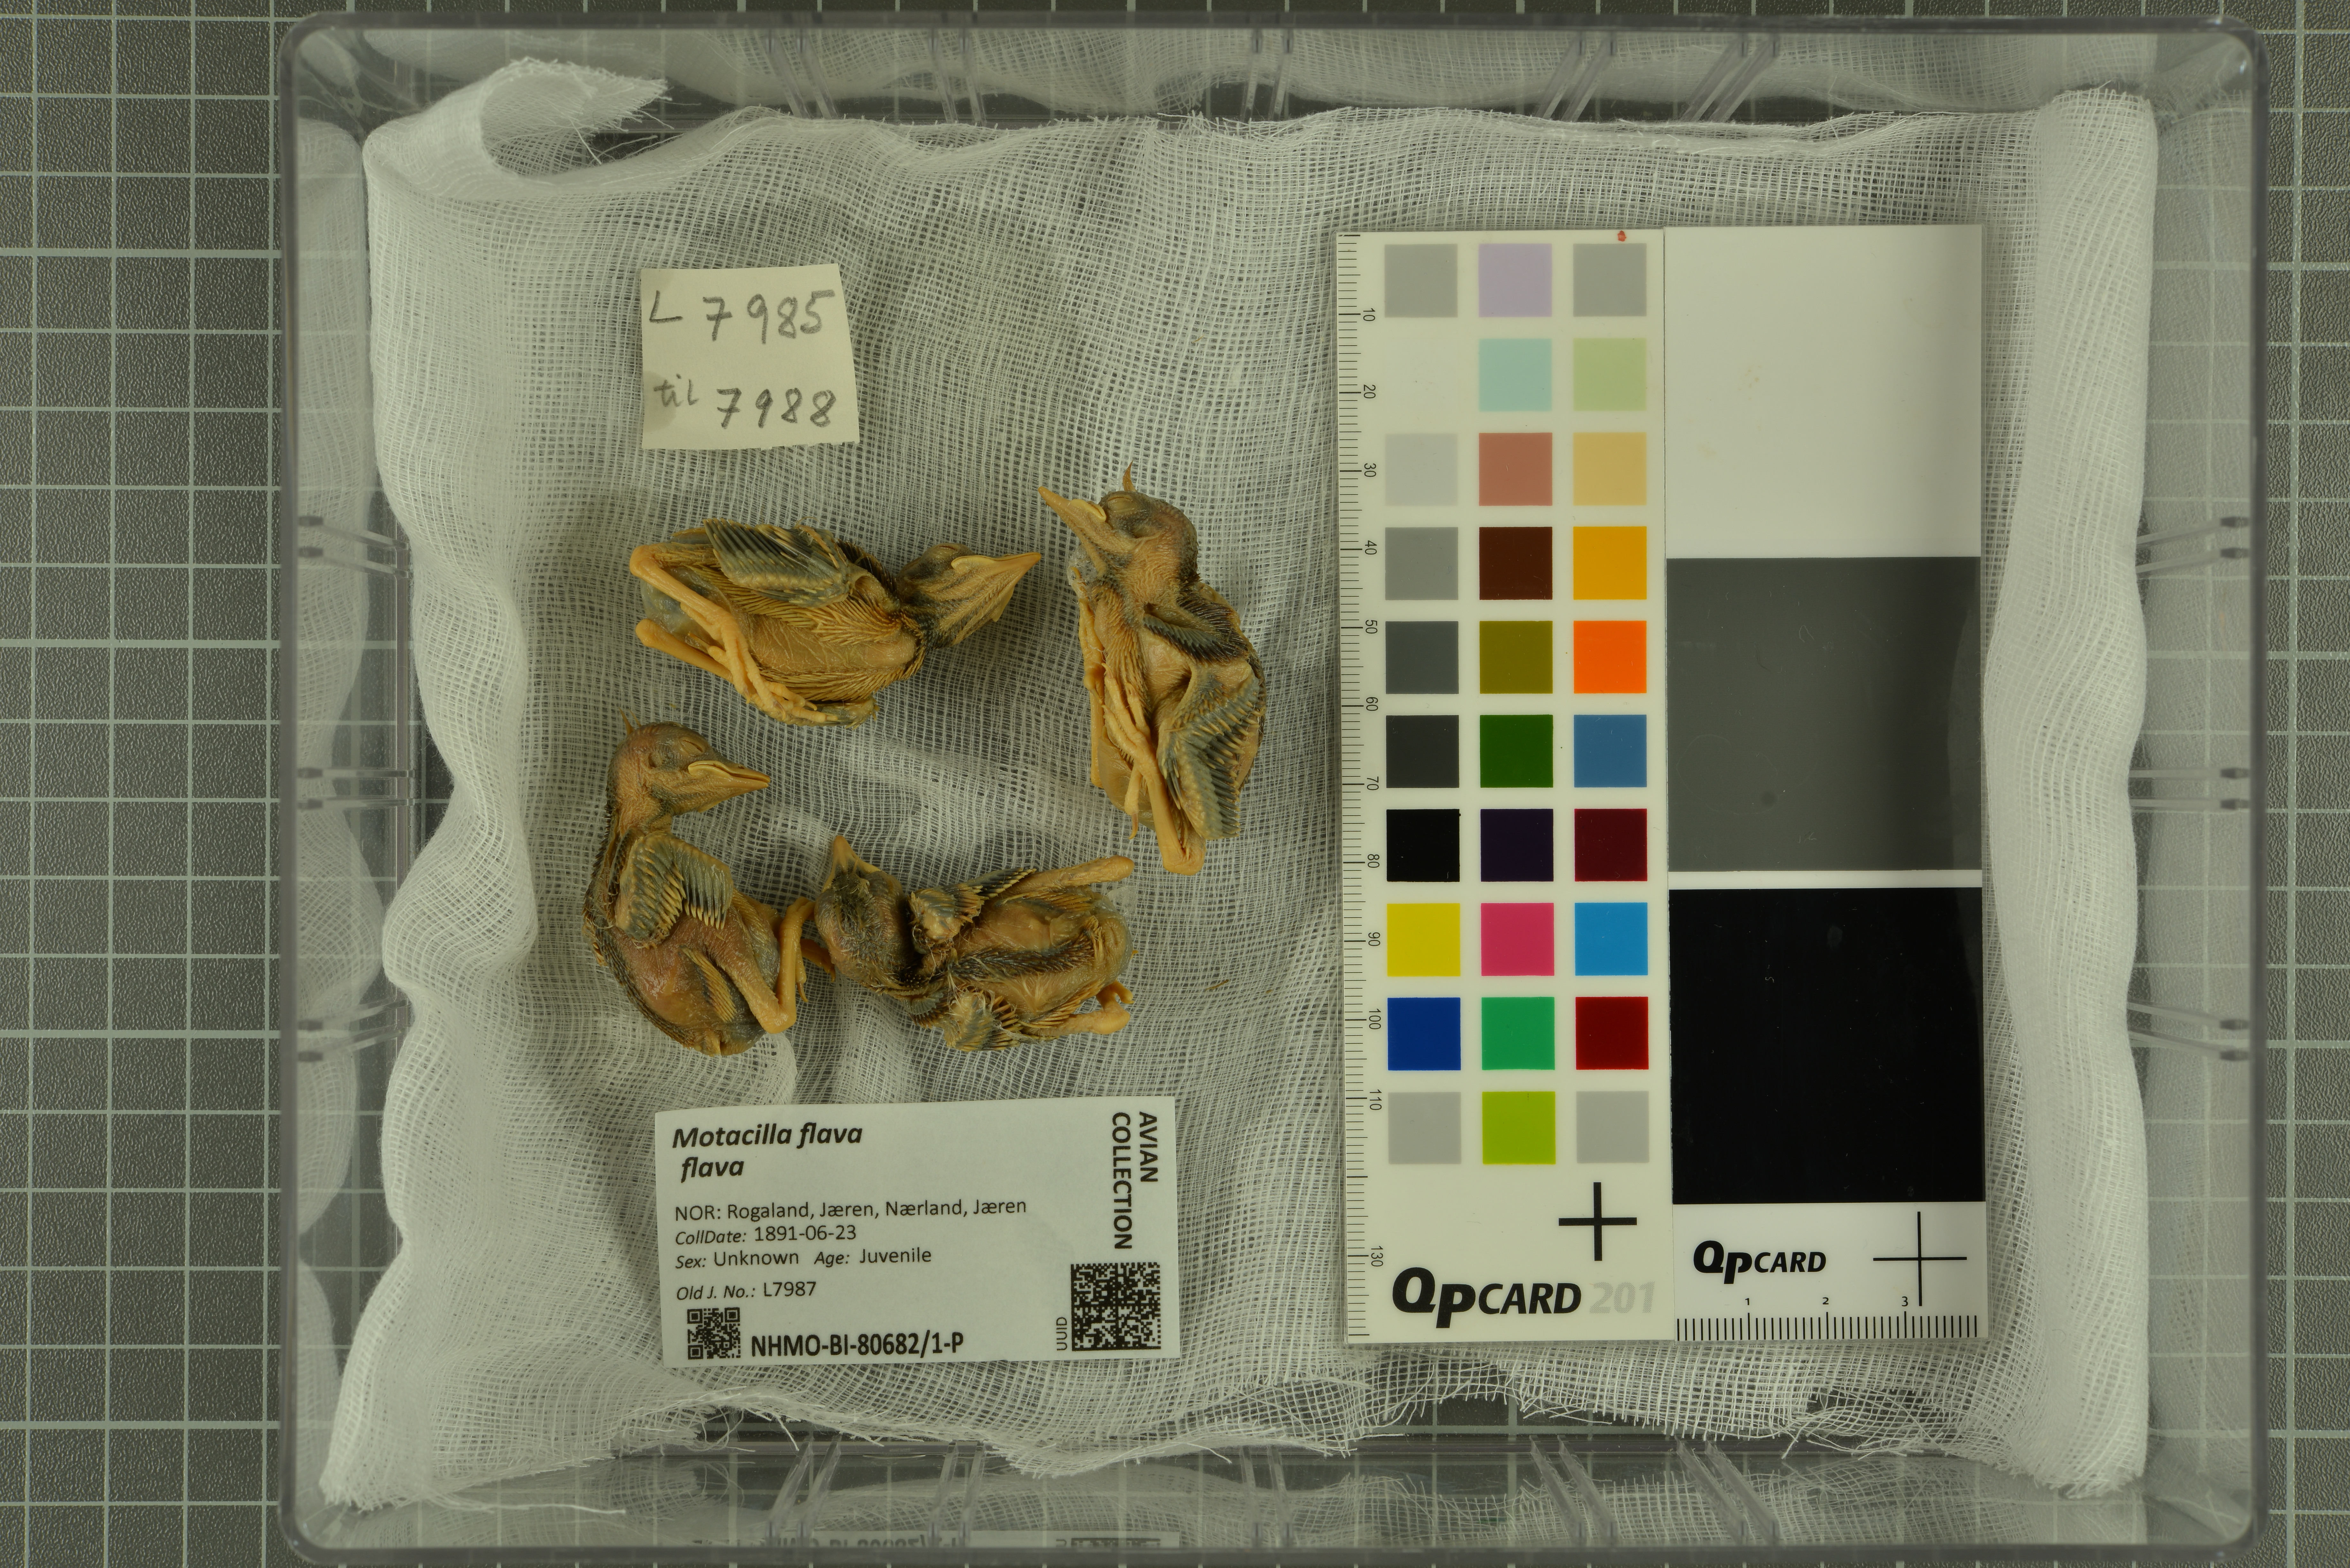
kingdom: Animalia
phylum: Chordata
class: Aves
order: Passeriformes
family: Motacillidae
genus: Motacilla
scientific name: Motacilla flava
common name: Western yellow wagtail
